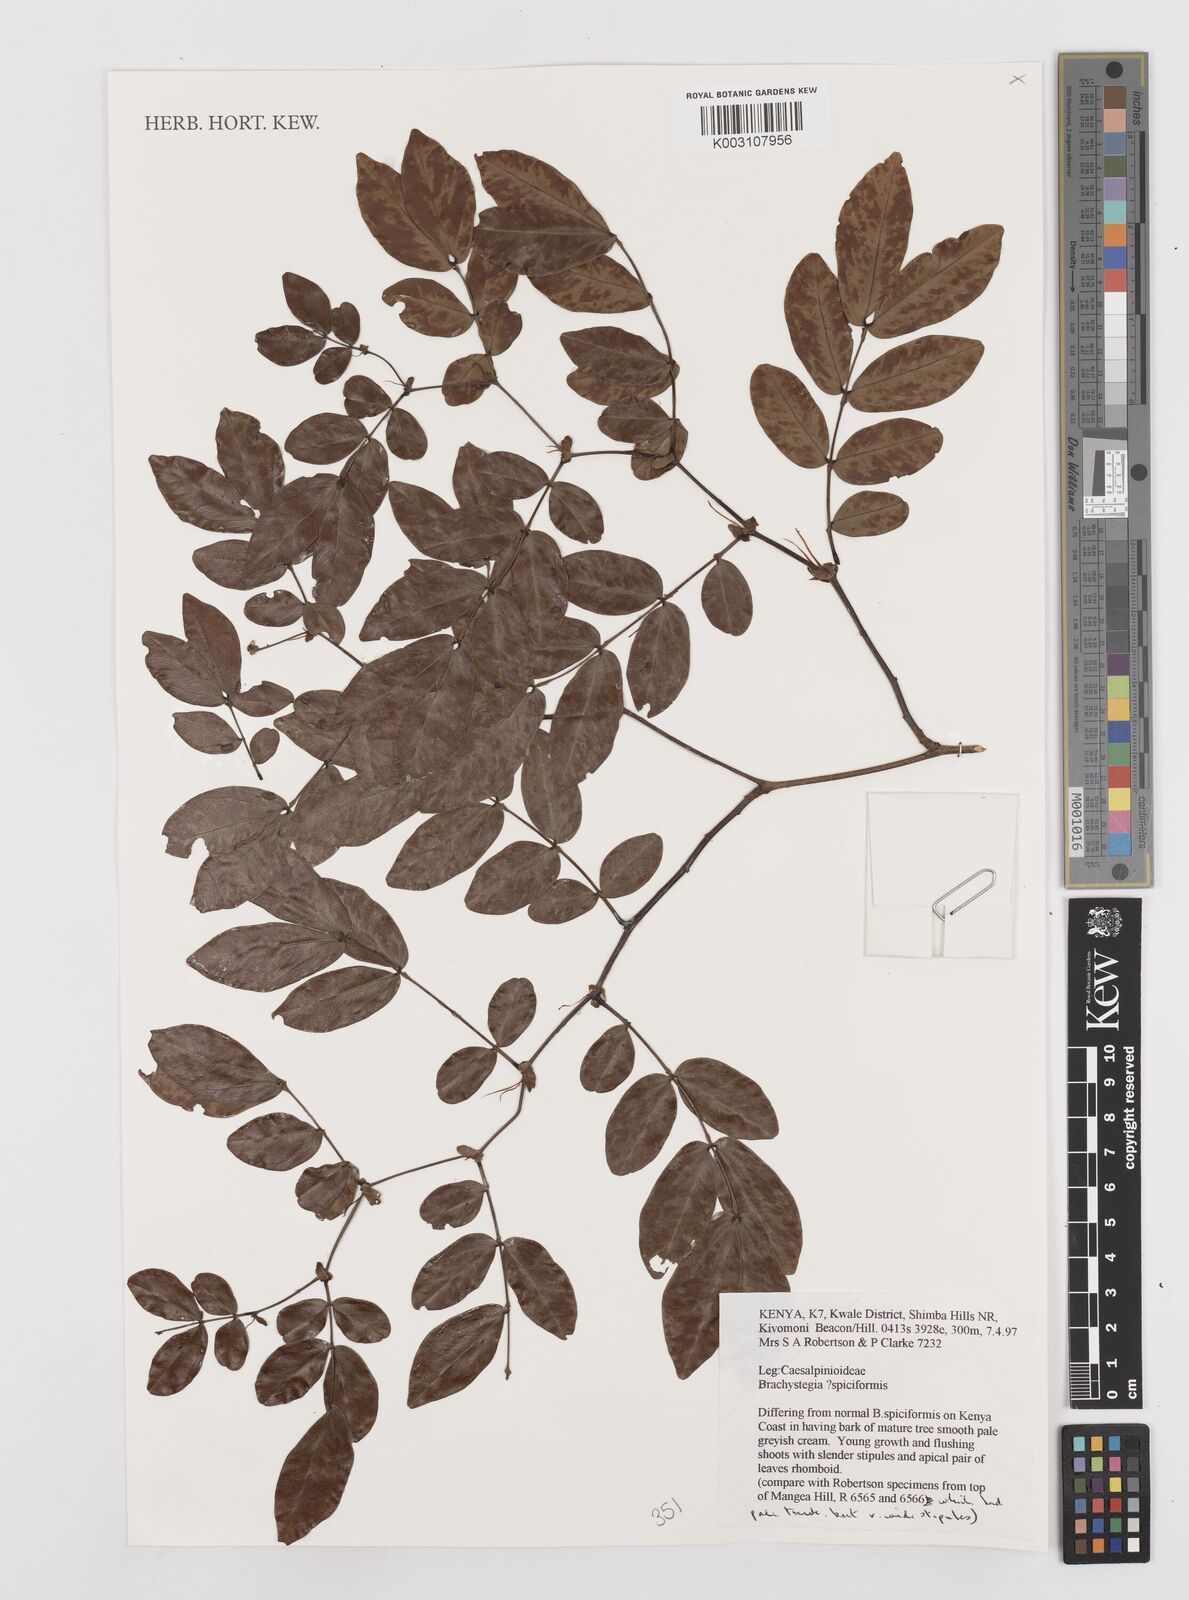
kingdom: Plantae
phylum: Tracheophyta
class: Magnoliopsida
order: Fabales
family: Fabaceae
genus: Brachystegia
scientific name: Brachystegia spiciformis
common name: Zebrawood
